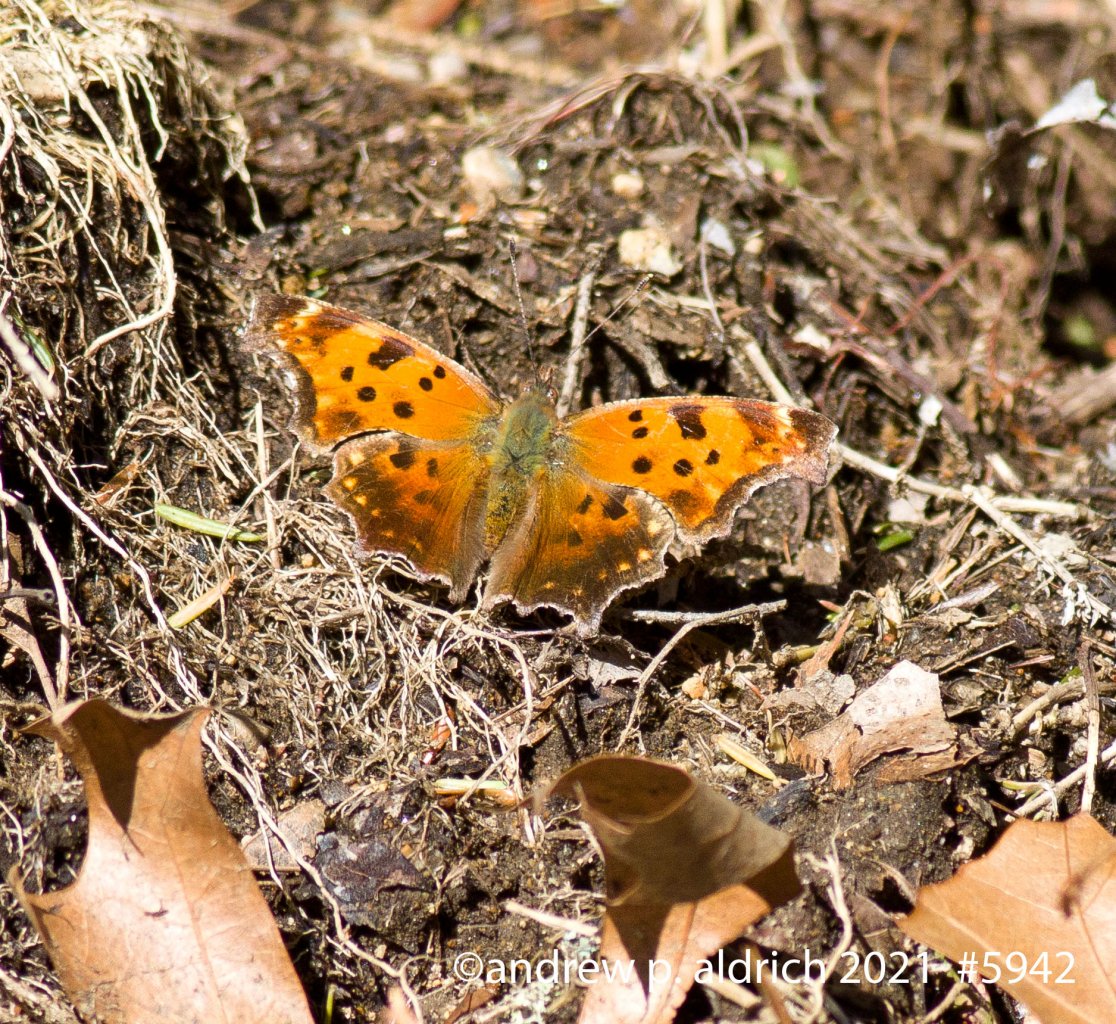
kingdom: Animalia
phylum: Arthropoda
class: Insecta
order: Lepidoptera
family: Nymphalidae
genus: Polygonia
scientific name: Polygonia comma
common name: Eastern Comma
